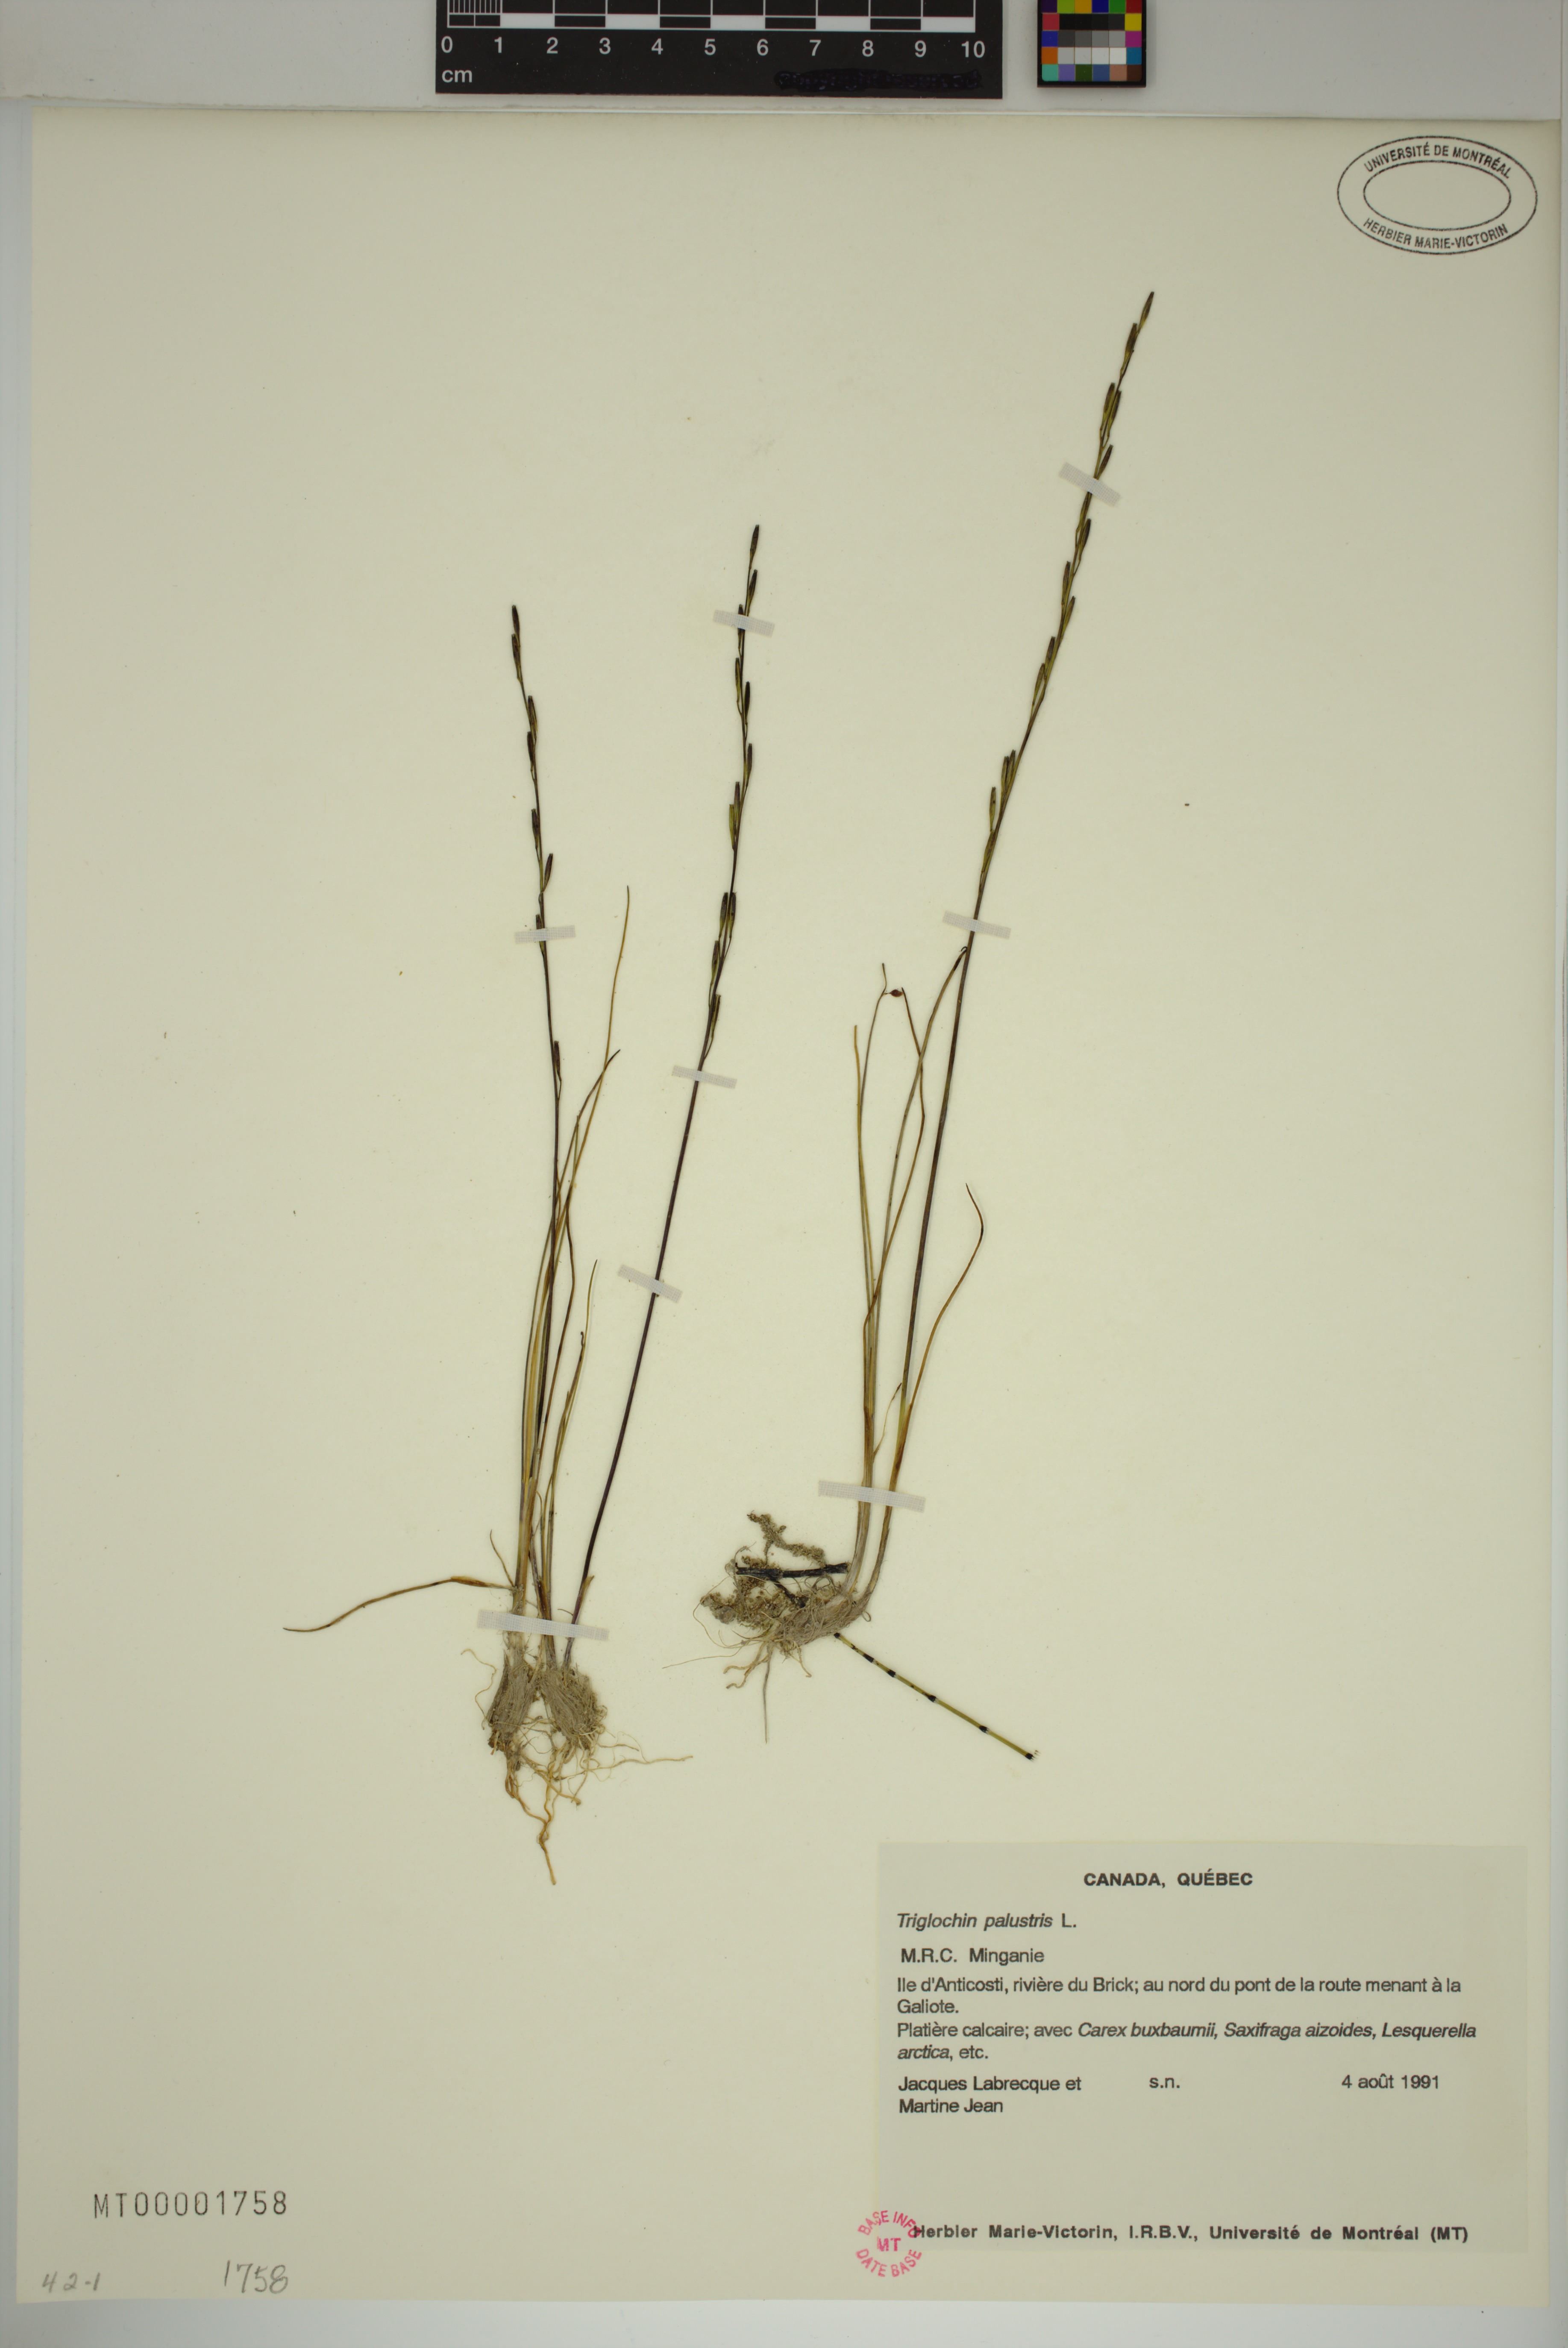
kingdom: Plantae
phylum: Tracheophyta
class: Liliopsida
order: Alismatales
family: Juncaginaceae
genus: Triglochin
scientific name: Triglochin palustris
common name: Marsh arrowgrass
